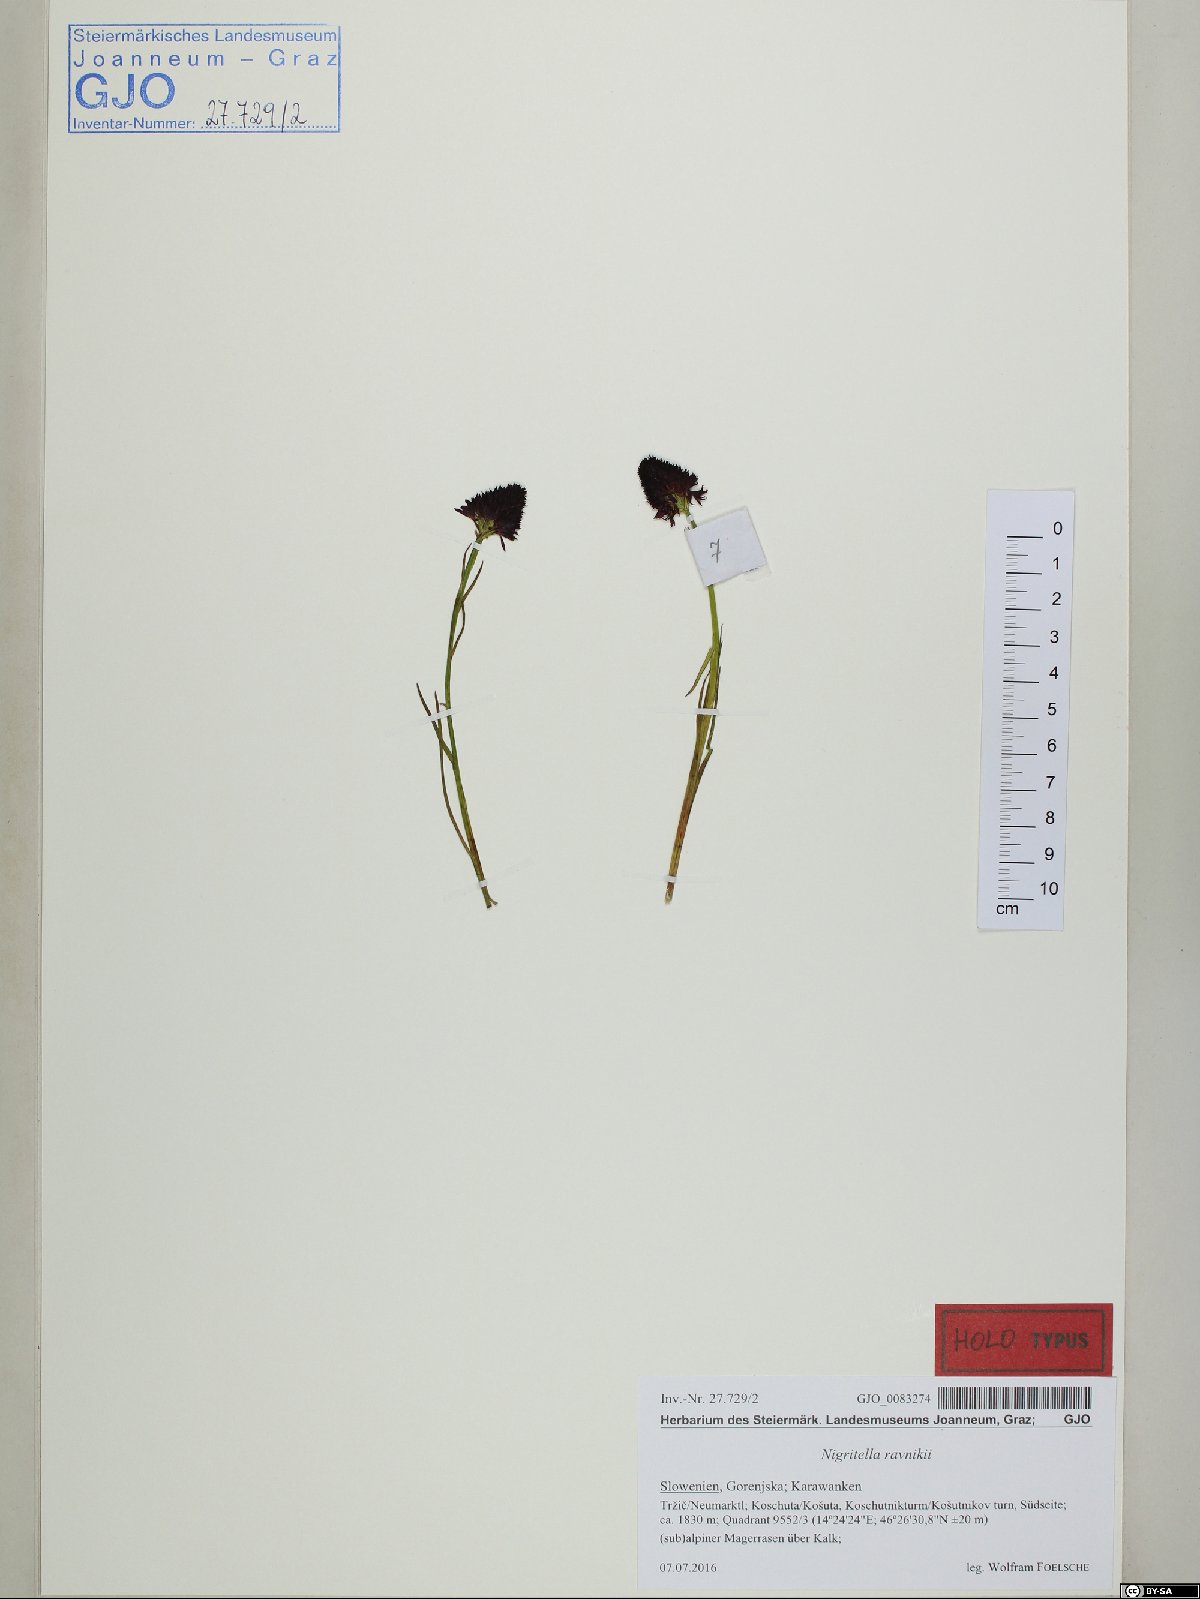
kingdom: Plantae
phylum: Tracheophyta
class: Liliopsida
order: Asparagales
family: Orchidaceae
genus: Gymnadenia
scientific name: Gymnadenia ravnikii
